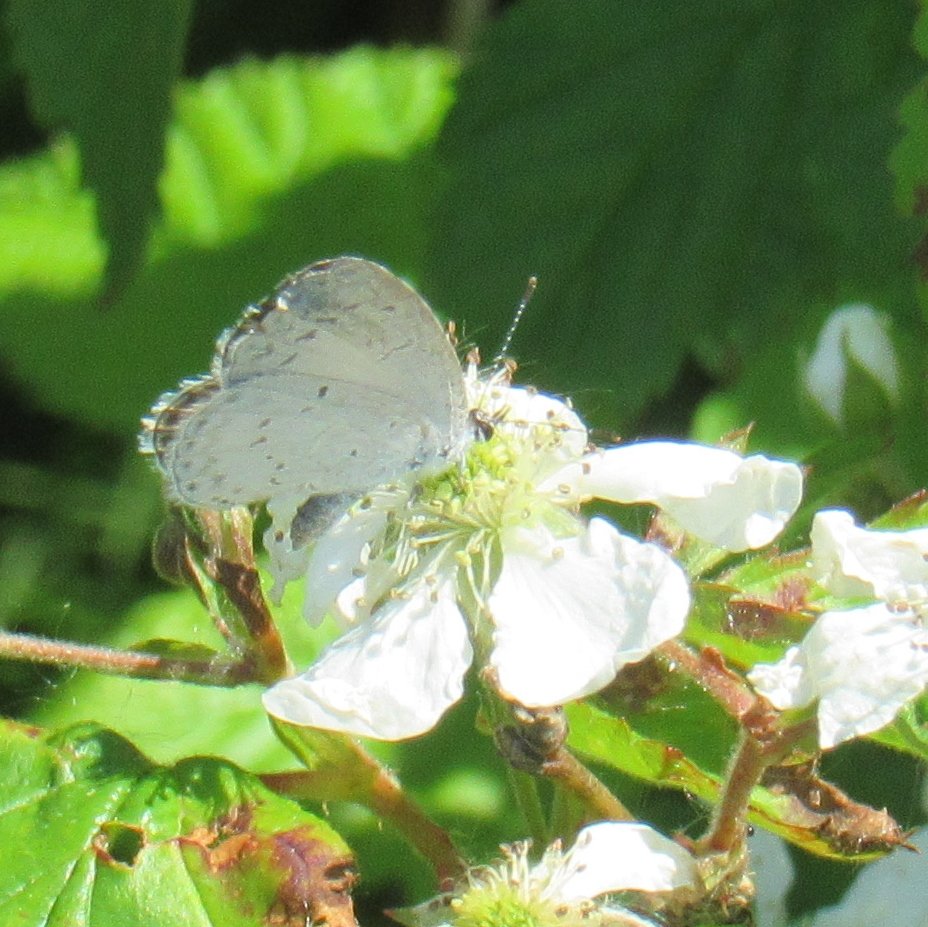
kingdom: Animalia
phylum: Arthropoda
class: Insecta
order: Lepidoptera
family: Lycaenidae
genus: Cyaniris
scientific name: Cyaniris neglecta
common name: Summer Azure
